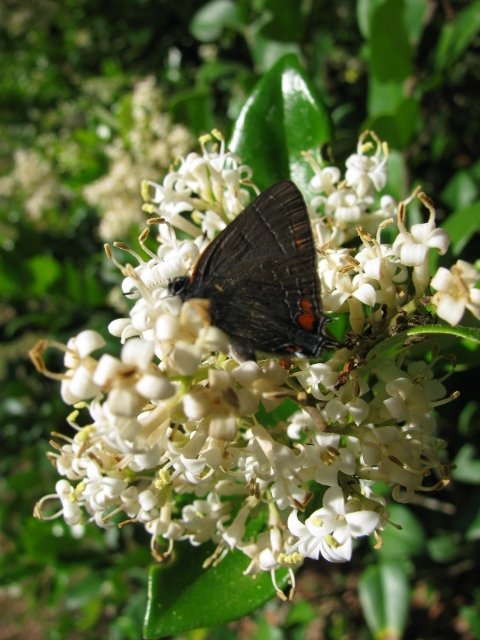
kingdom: Animalia
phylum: Arthropoda
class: Insecta
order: Lepidoptera
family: Lycaenidae
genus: Satyrium
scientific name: Satyrium calanus
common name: Banded Hairstreak
